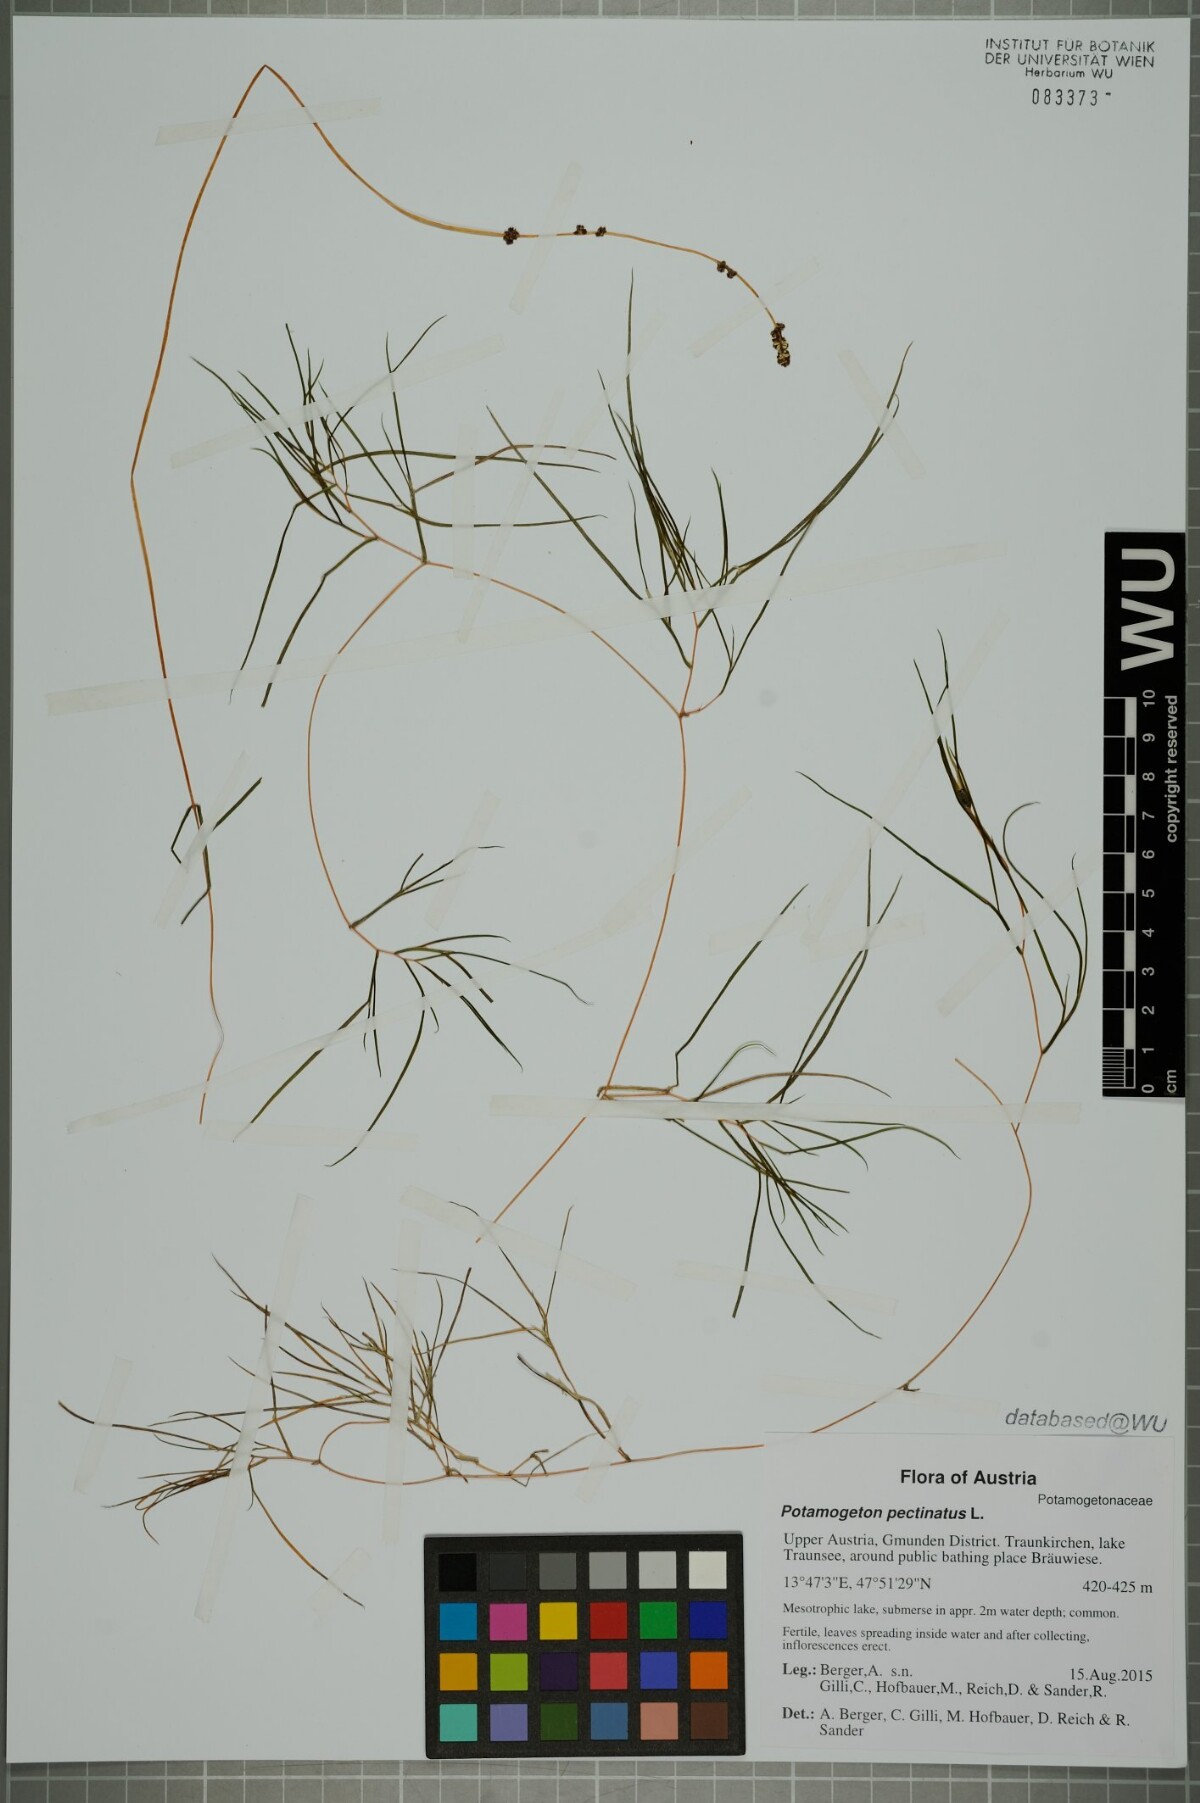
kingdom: Plantae
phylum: Tracheophyta
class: Liliopsida
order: Alismatales
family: Potamogetonaceae
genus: Stuckenia
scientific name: Stuckenia pectinata
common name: Sago pondweed
